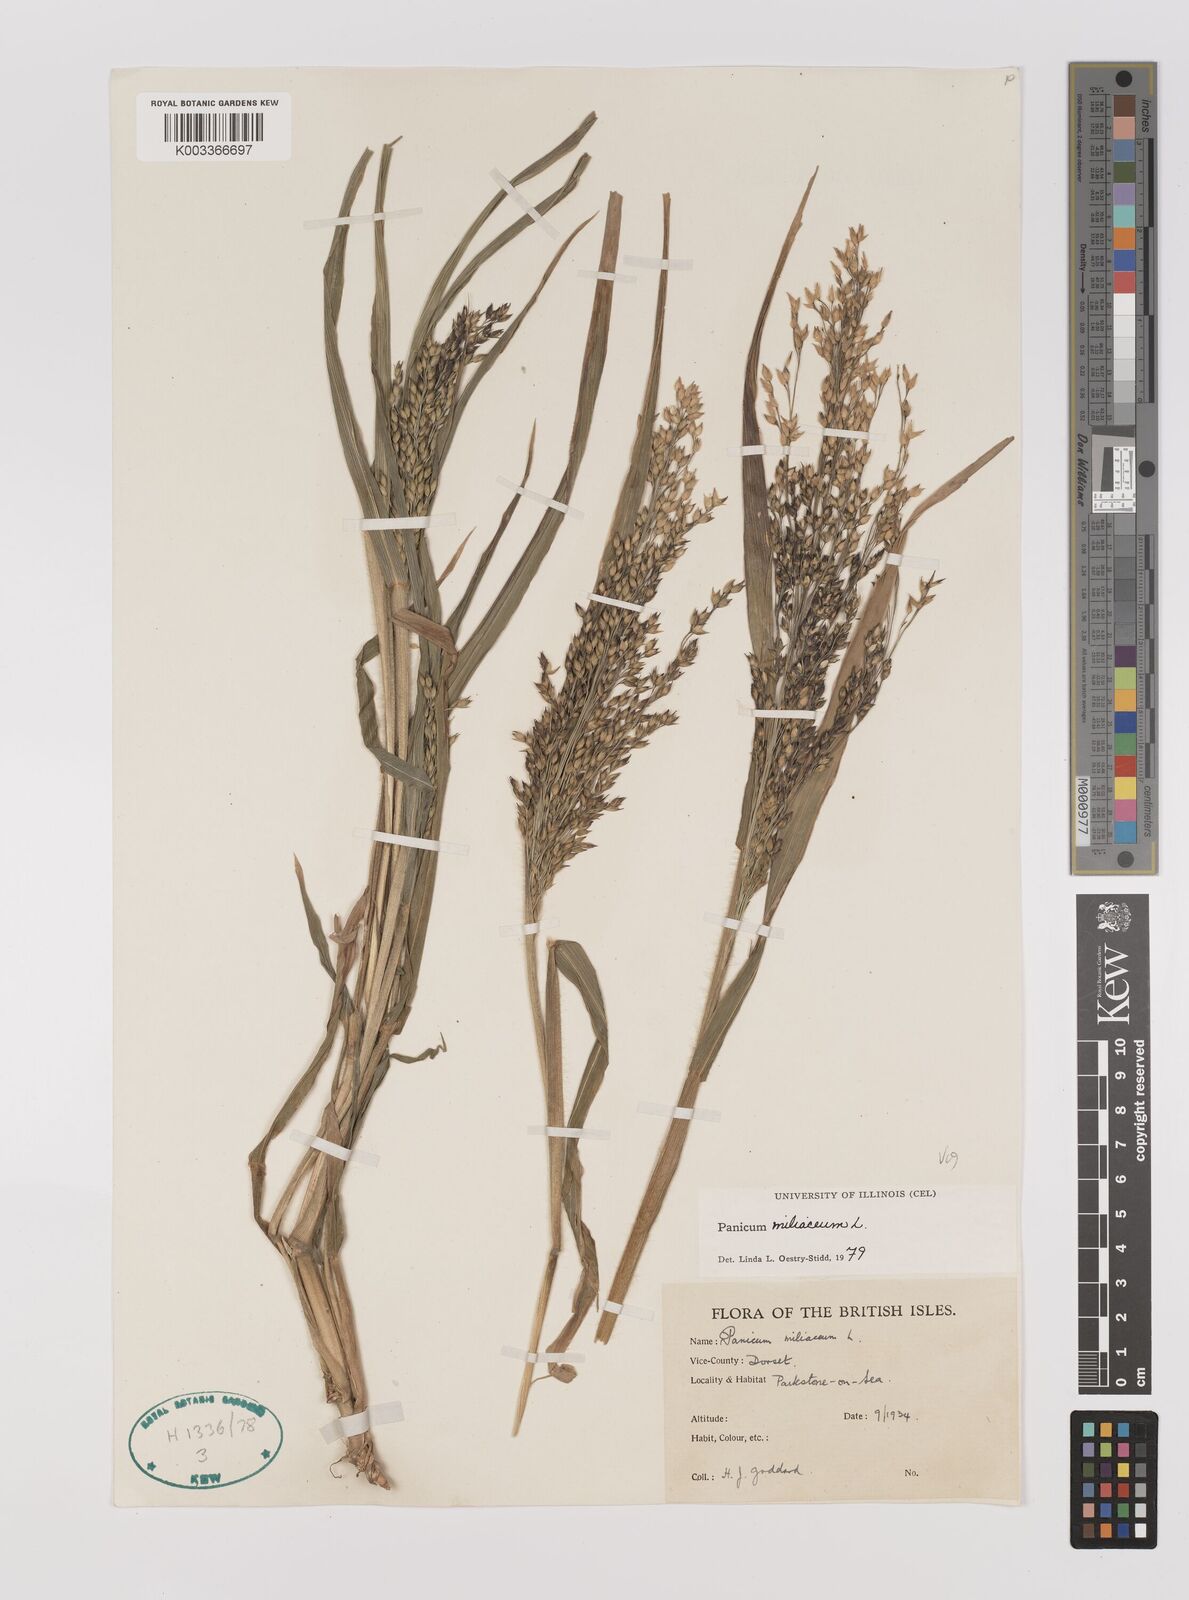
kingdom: Plantae
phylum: Tracheophyta
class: Liliopsida
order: Poales
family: Poaceae
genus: Panicum
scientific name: Panicum miliaceum
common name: Common millet
